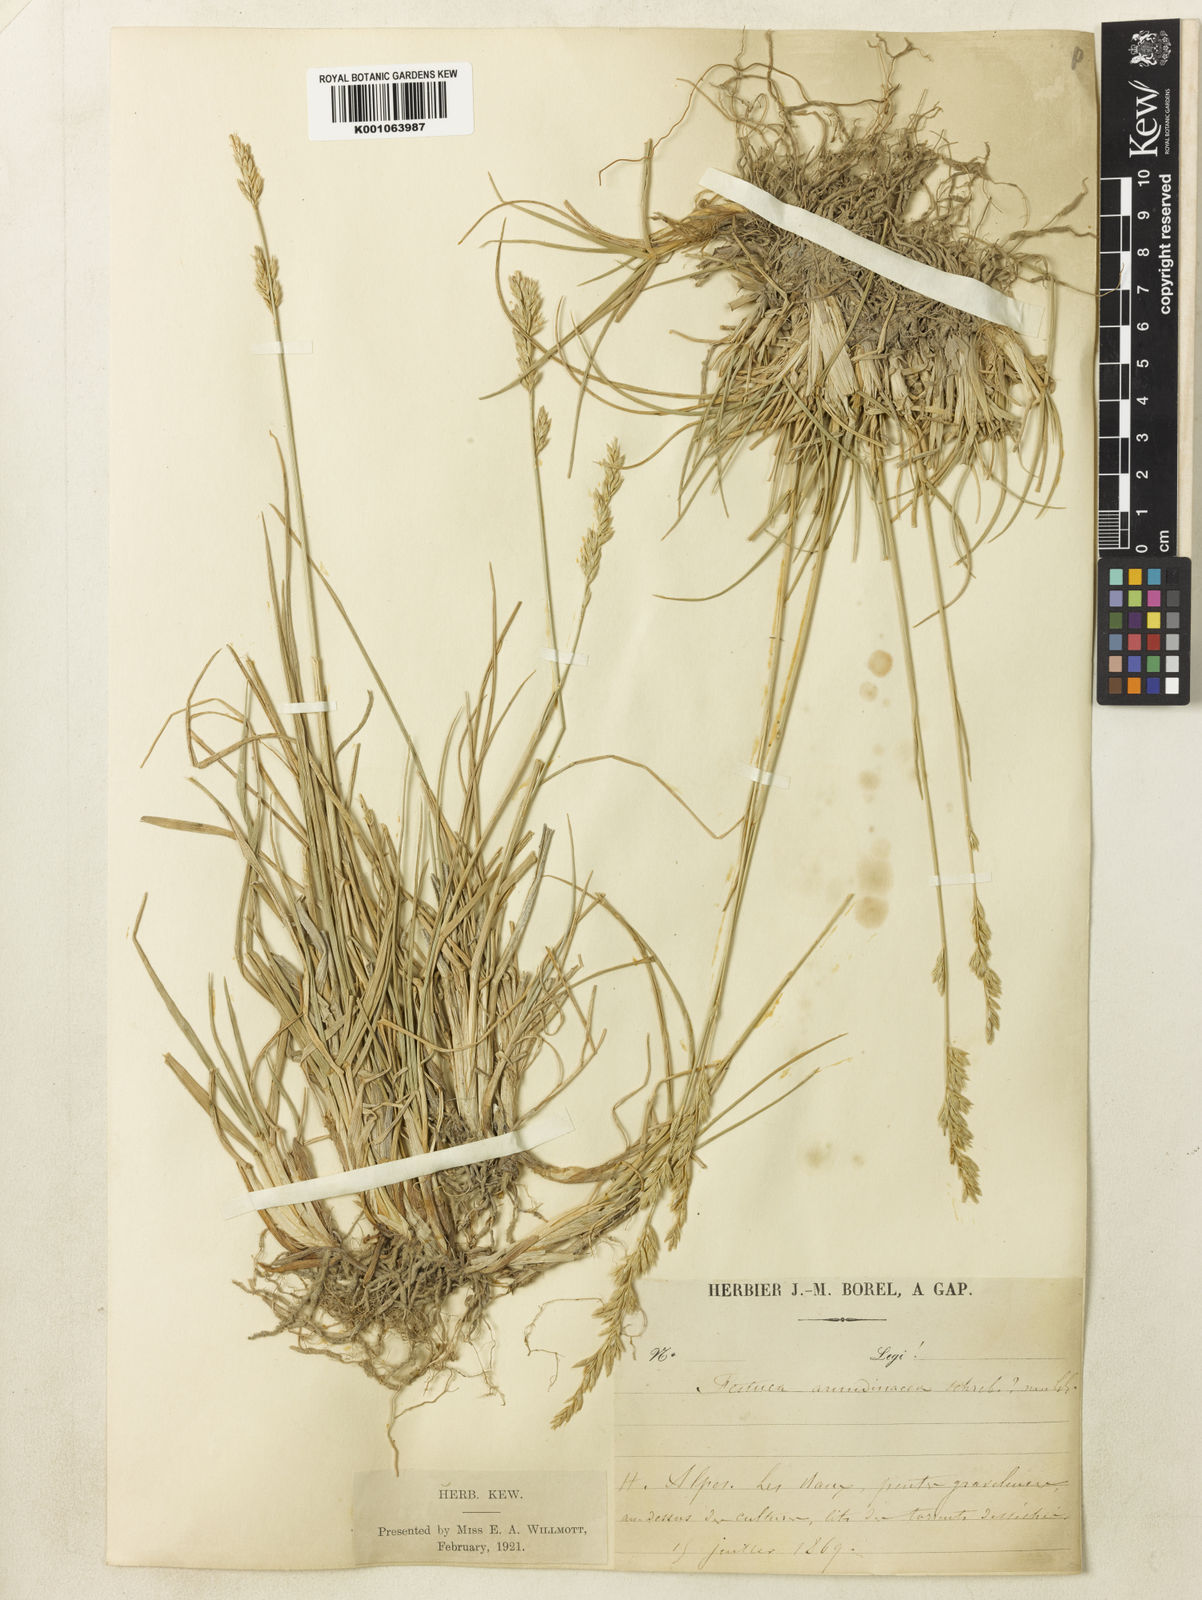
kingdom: Plantae
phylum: Tracheophyta
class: Liliopsida
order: Poales
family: Poaceae
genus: Lolium
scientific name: Lolium arundinaceum
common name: Reed fescue
